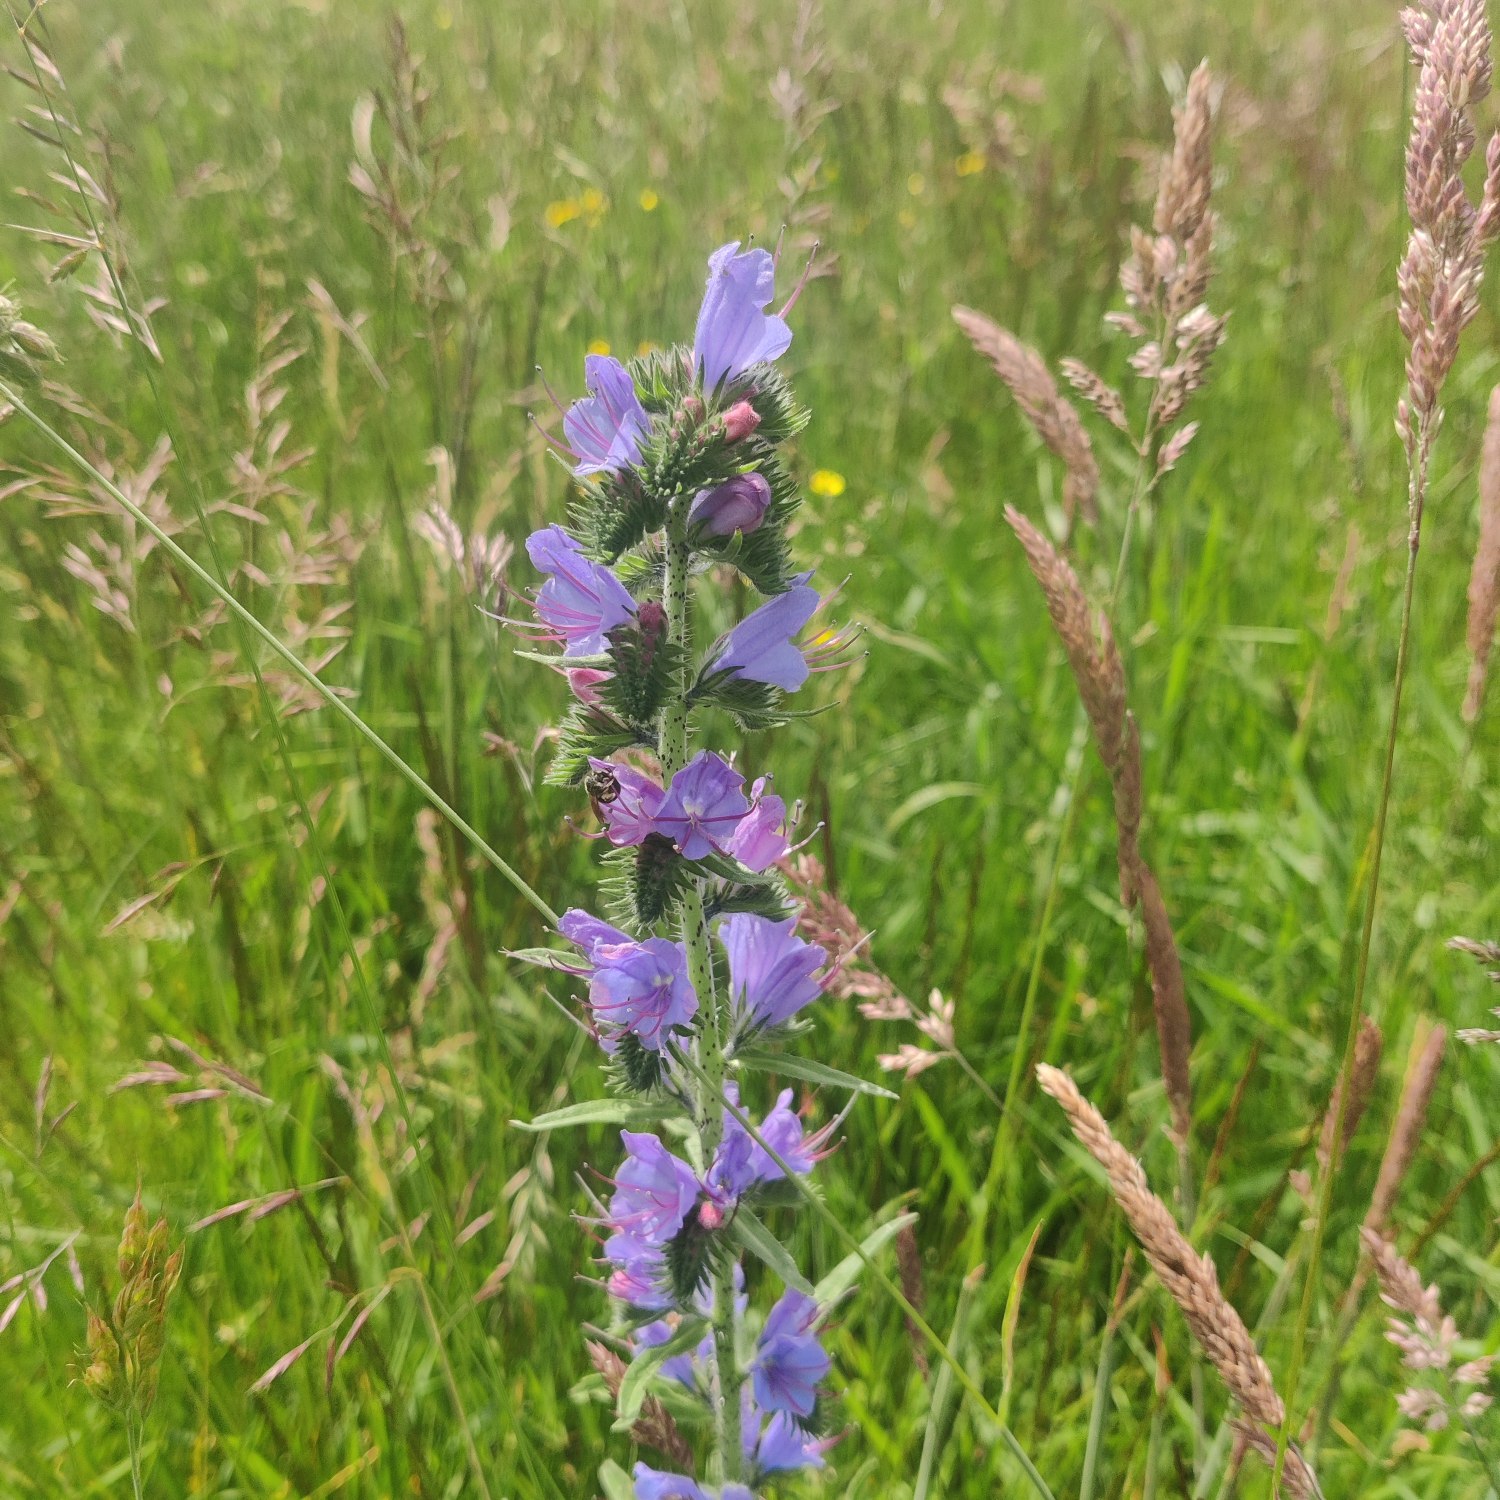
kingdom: Plantae
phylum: Tracheophyta
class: Magnoliopsida
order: Boraginales
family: Boraginaceae
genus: Echium
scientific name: Echium vulgare
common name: Slangehoved
